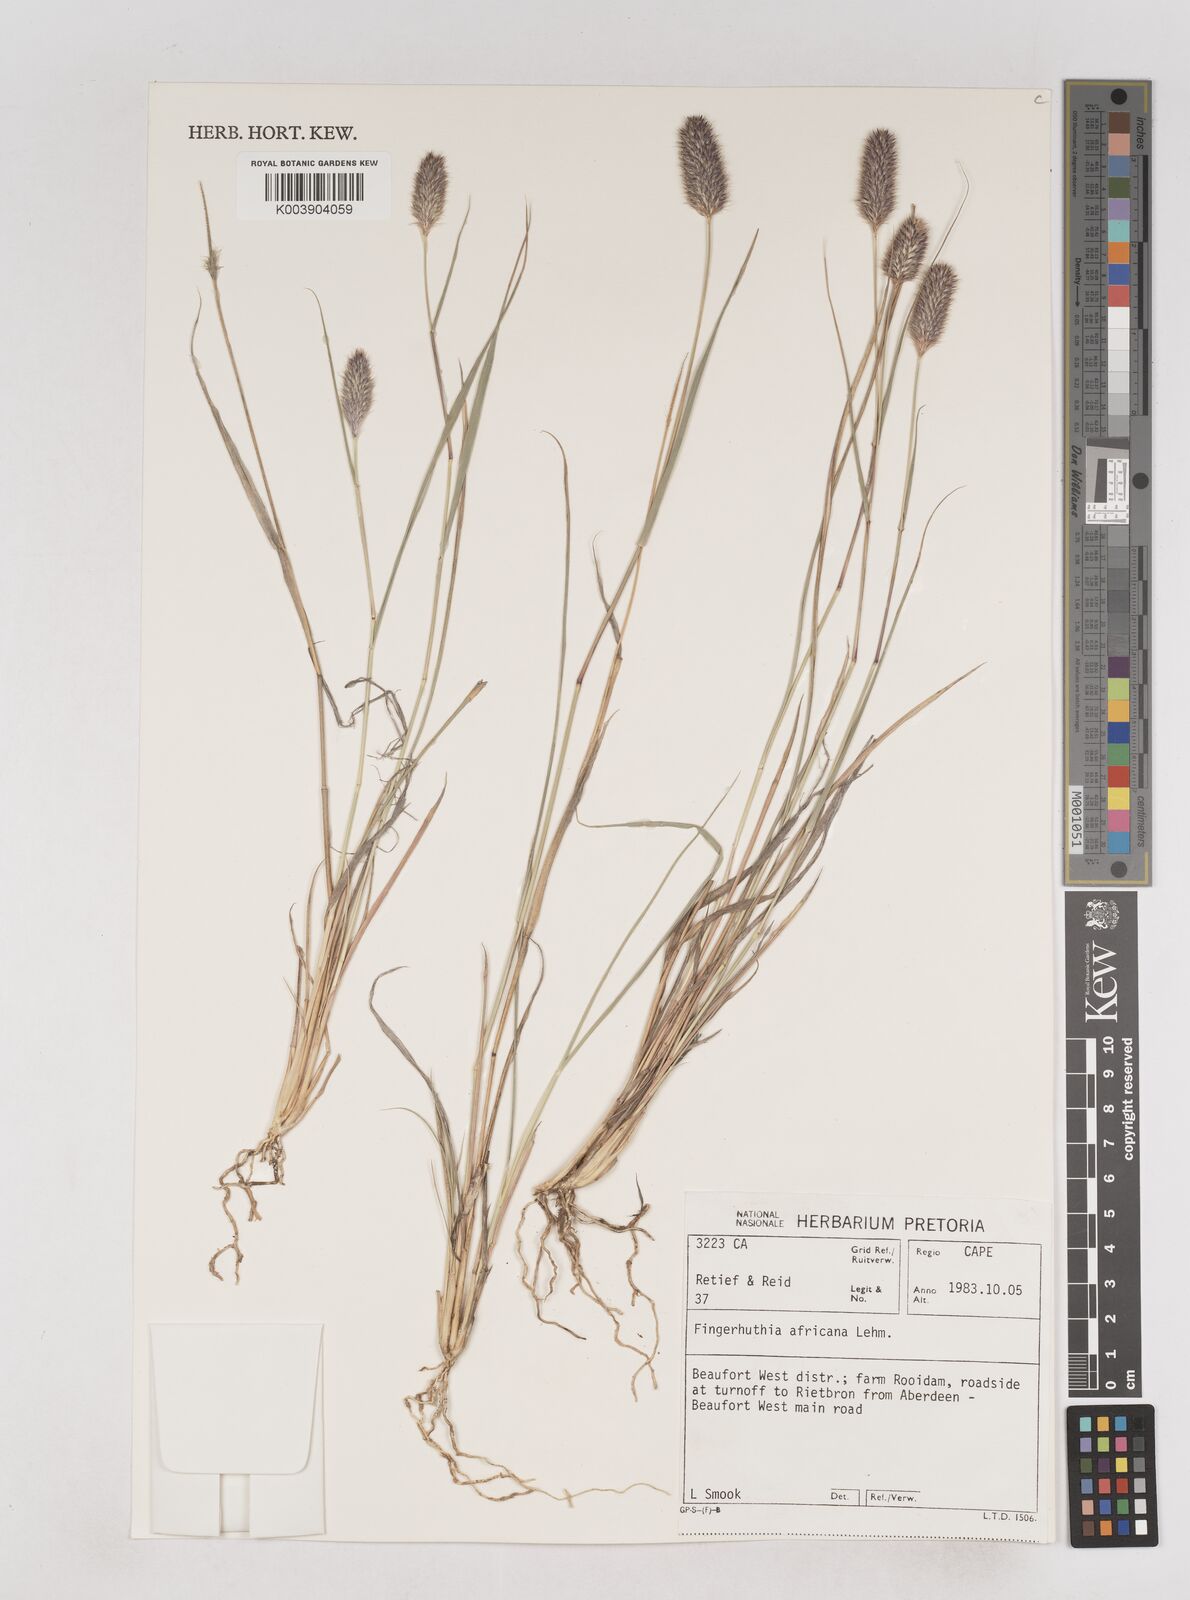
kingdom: Plantae
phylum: Tracheophyta
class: Liliopsida
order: Poales
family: Poaceae
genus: Fingerhuthia
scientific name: Fingerhuthia africana
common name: Zulu fescue
